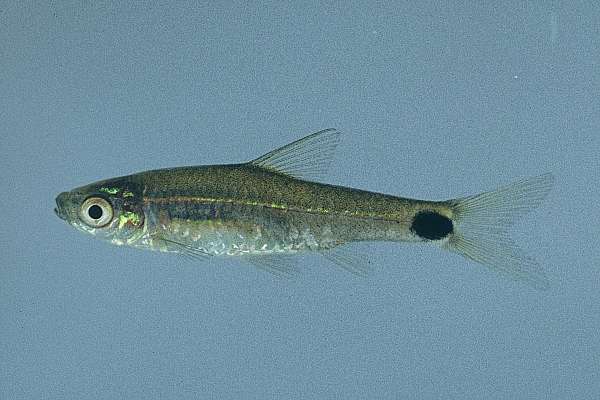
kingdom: Animalia
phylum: Chordata
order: Cypriniformes
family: Cyprinidae
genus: Enteromius
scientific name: Enteromius afrovernayi
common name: Spottail barb
